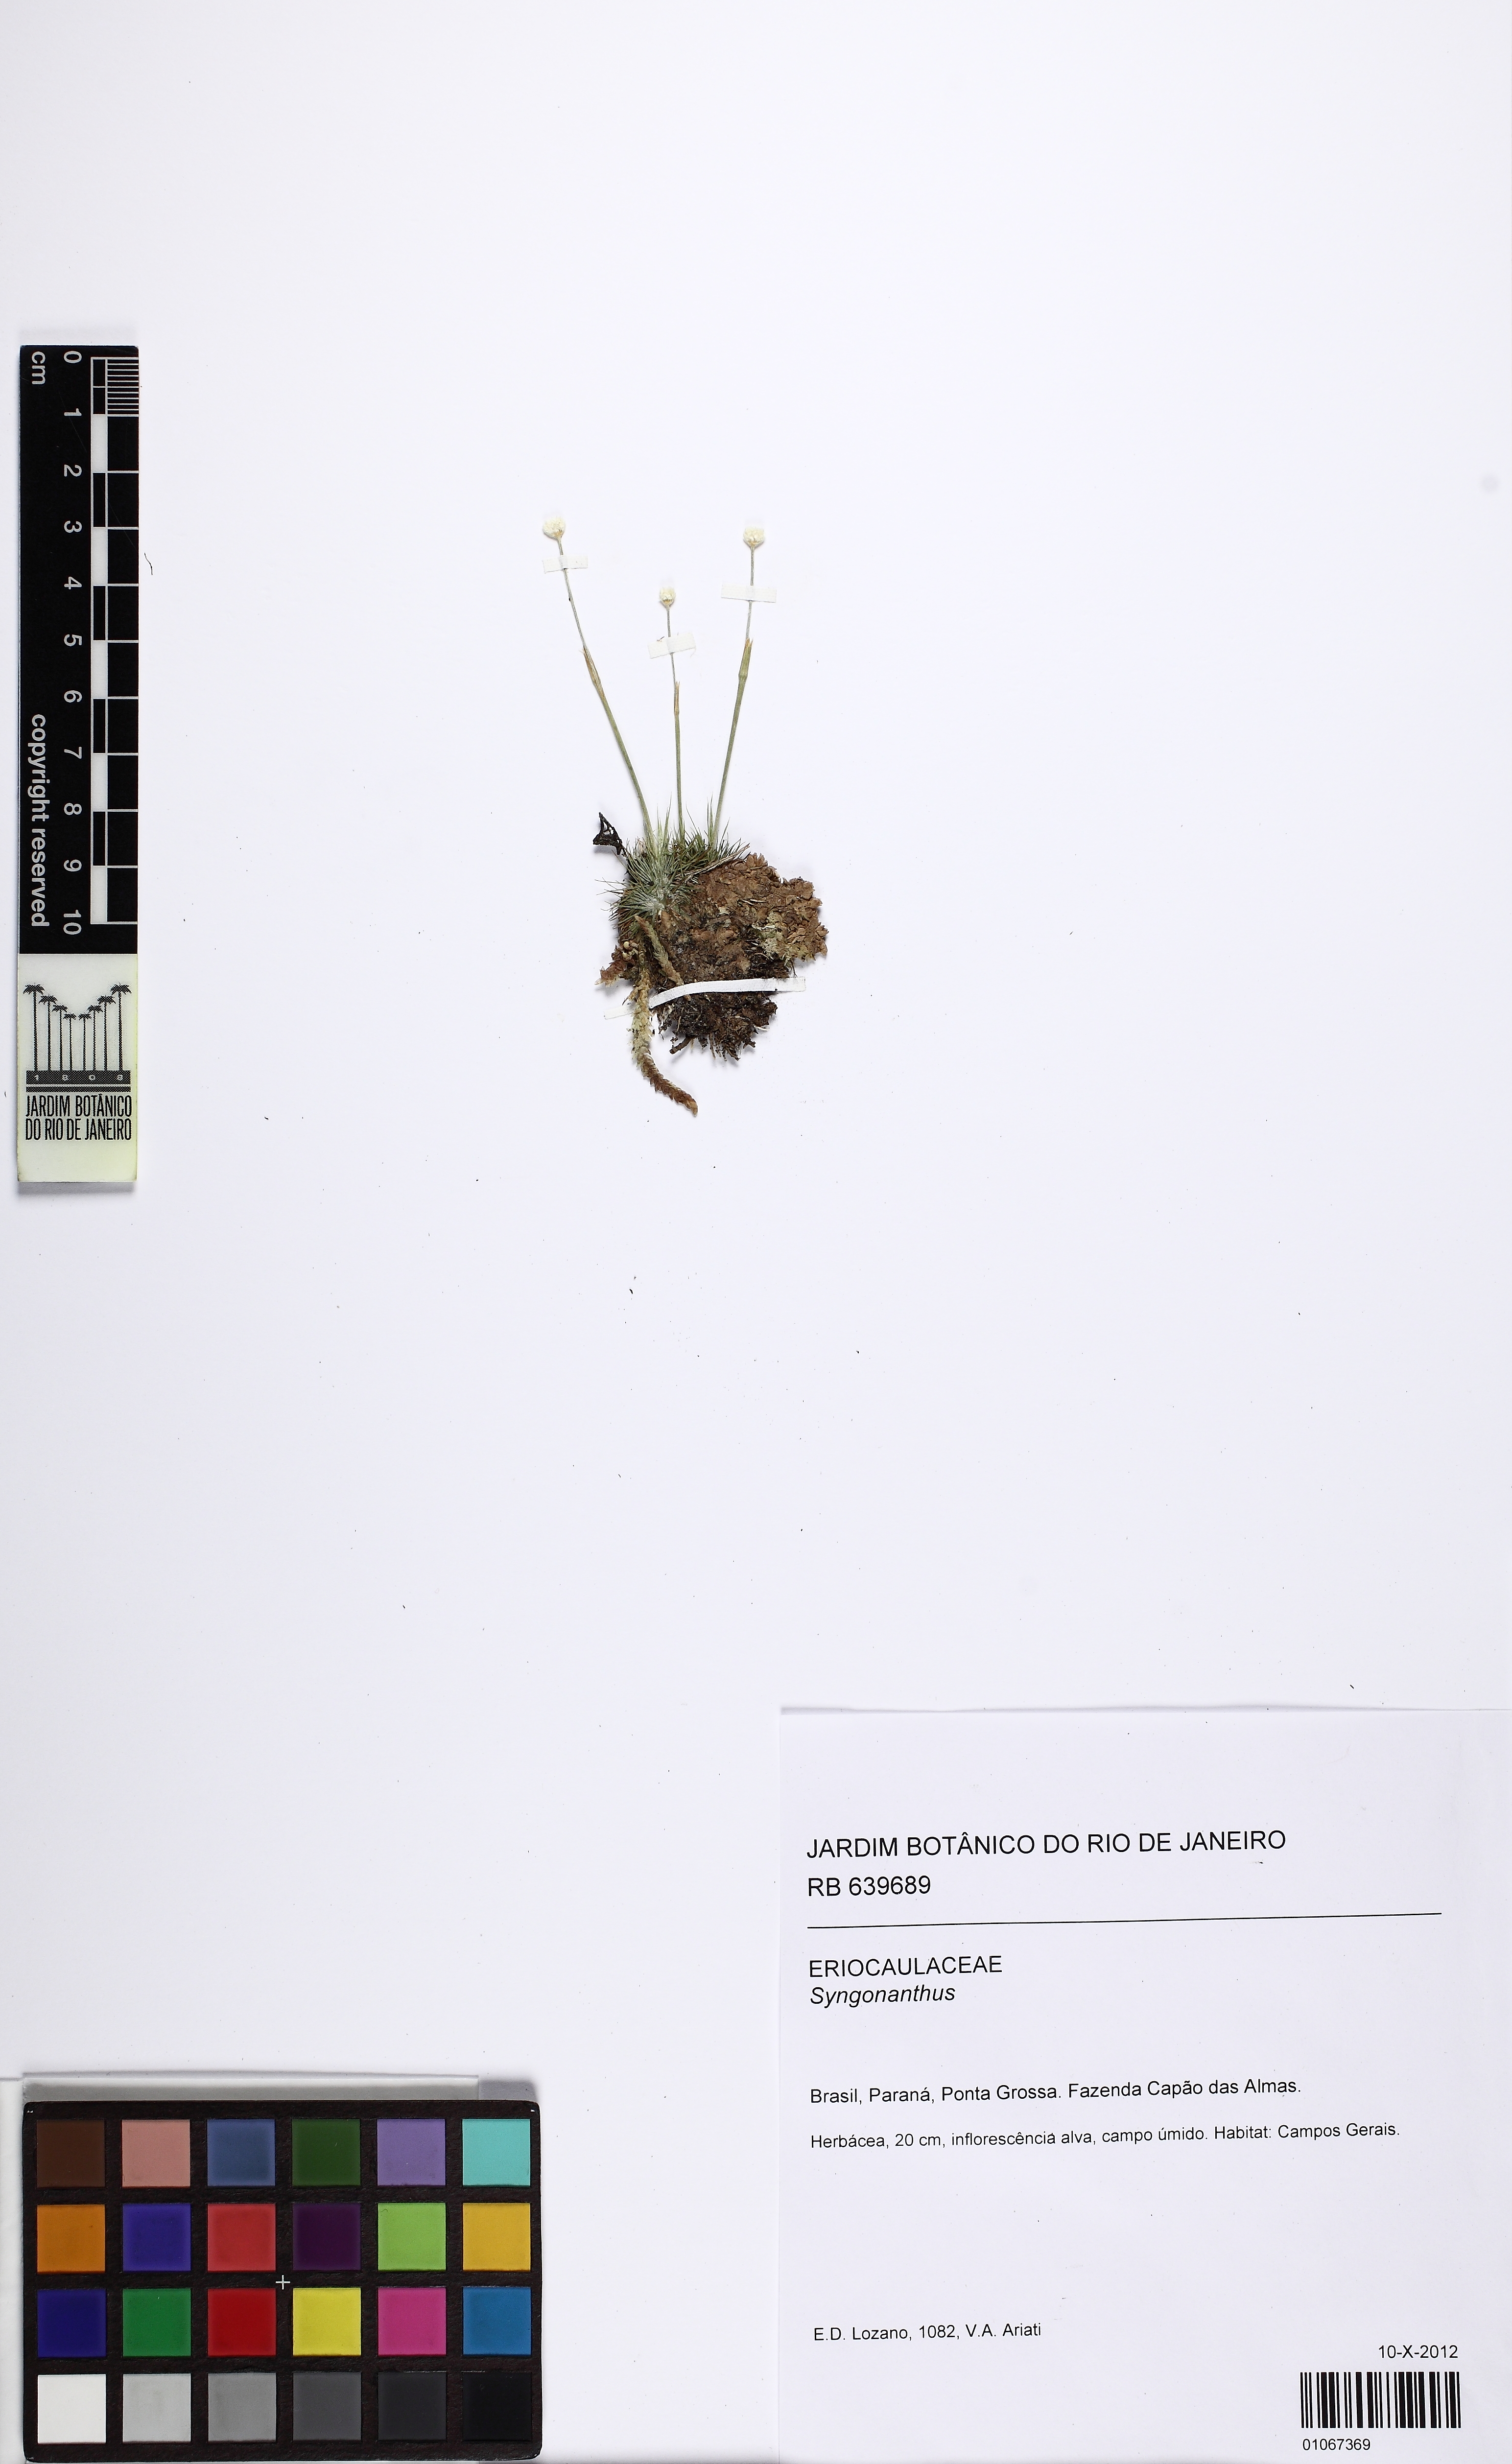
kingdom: Plantae
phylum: Tracheophyta
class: Liliopsida
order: Poales
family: Eriocaulaceae
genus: Syngonanthus
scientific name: Syngonanthus fischerianus
